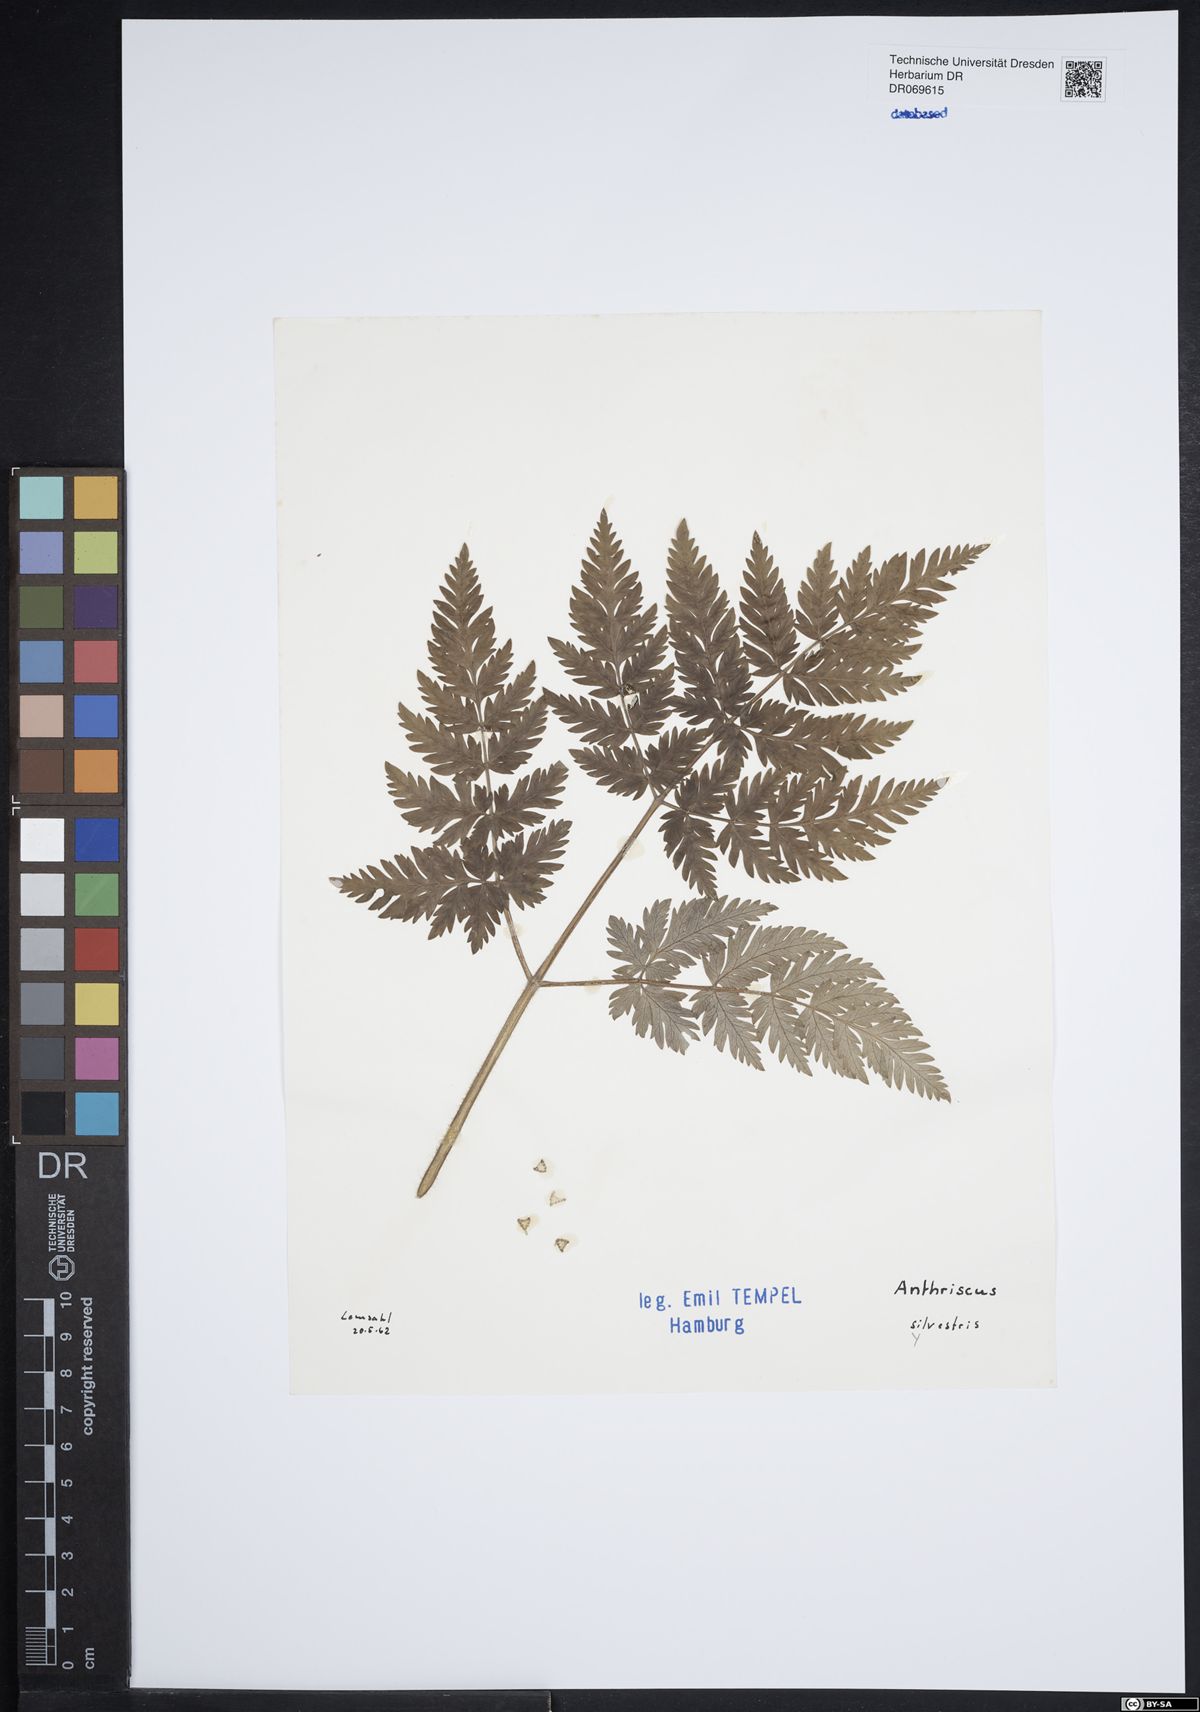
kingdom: Plantae
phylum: Tracheophyta
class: Magnoliopsida
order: Apiales
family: Apiaceae
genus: Anthriscus
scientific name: Anthriscus sylvestris
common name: Cow parsley
